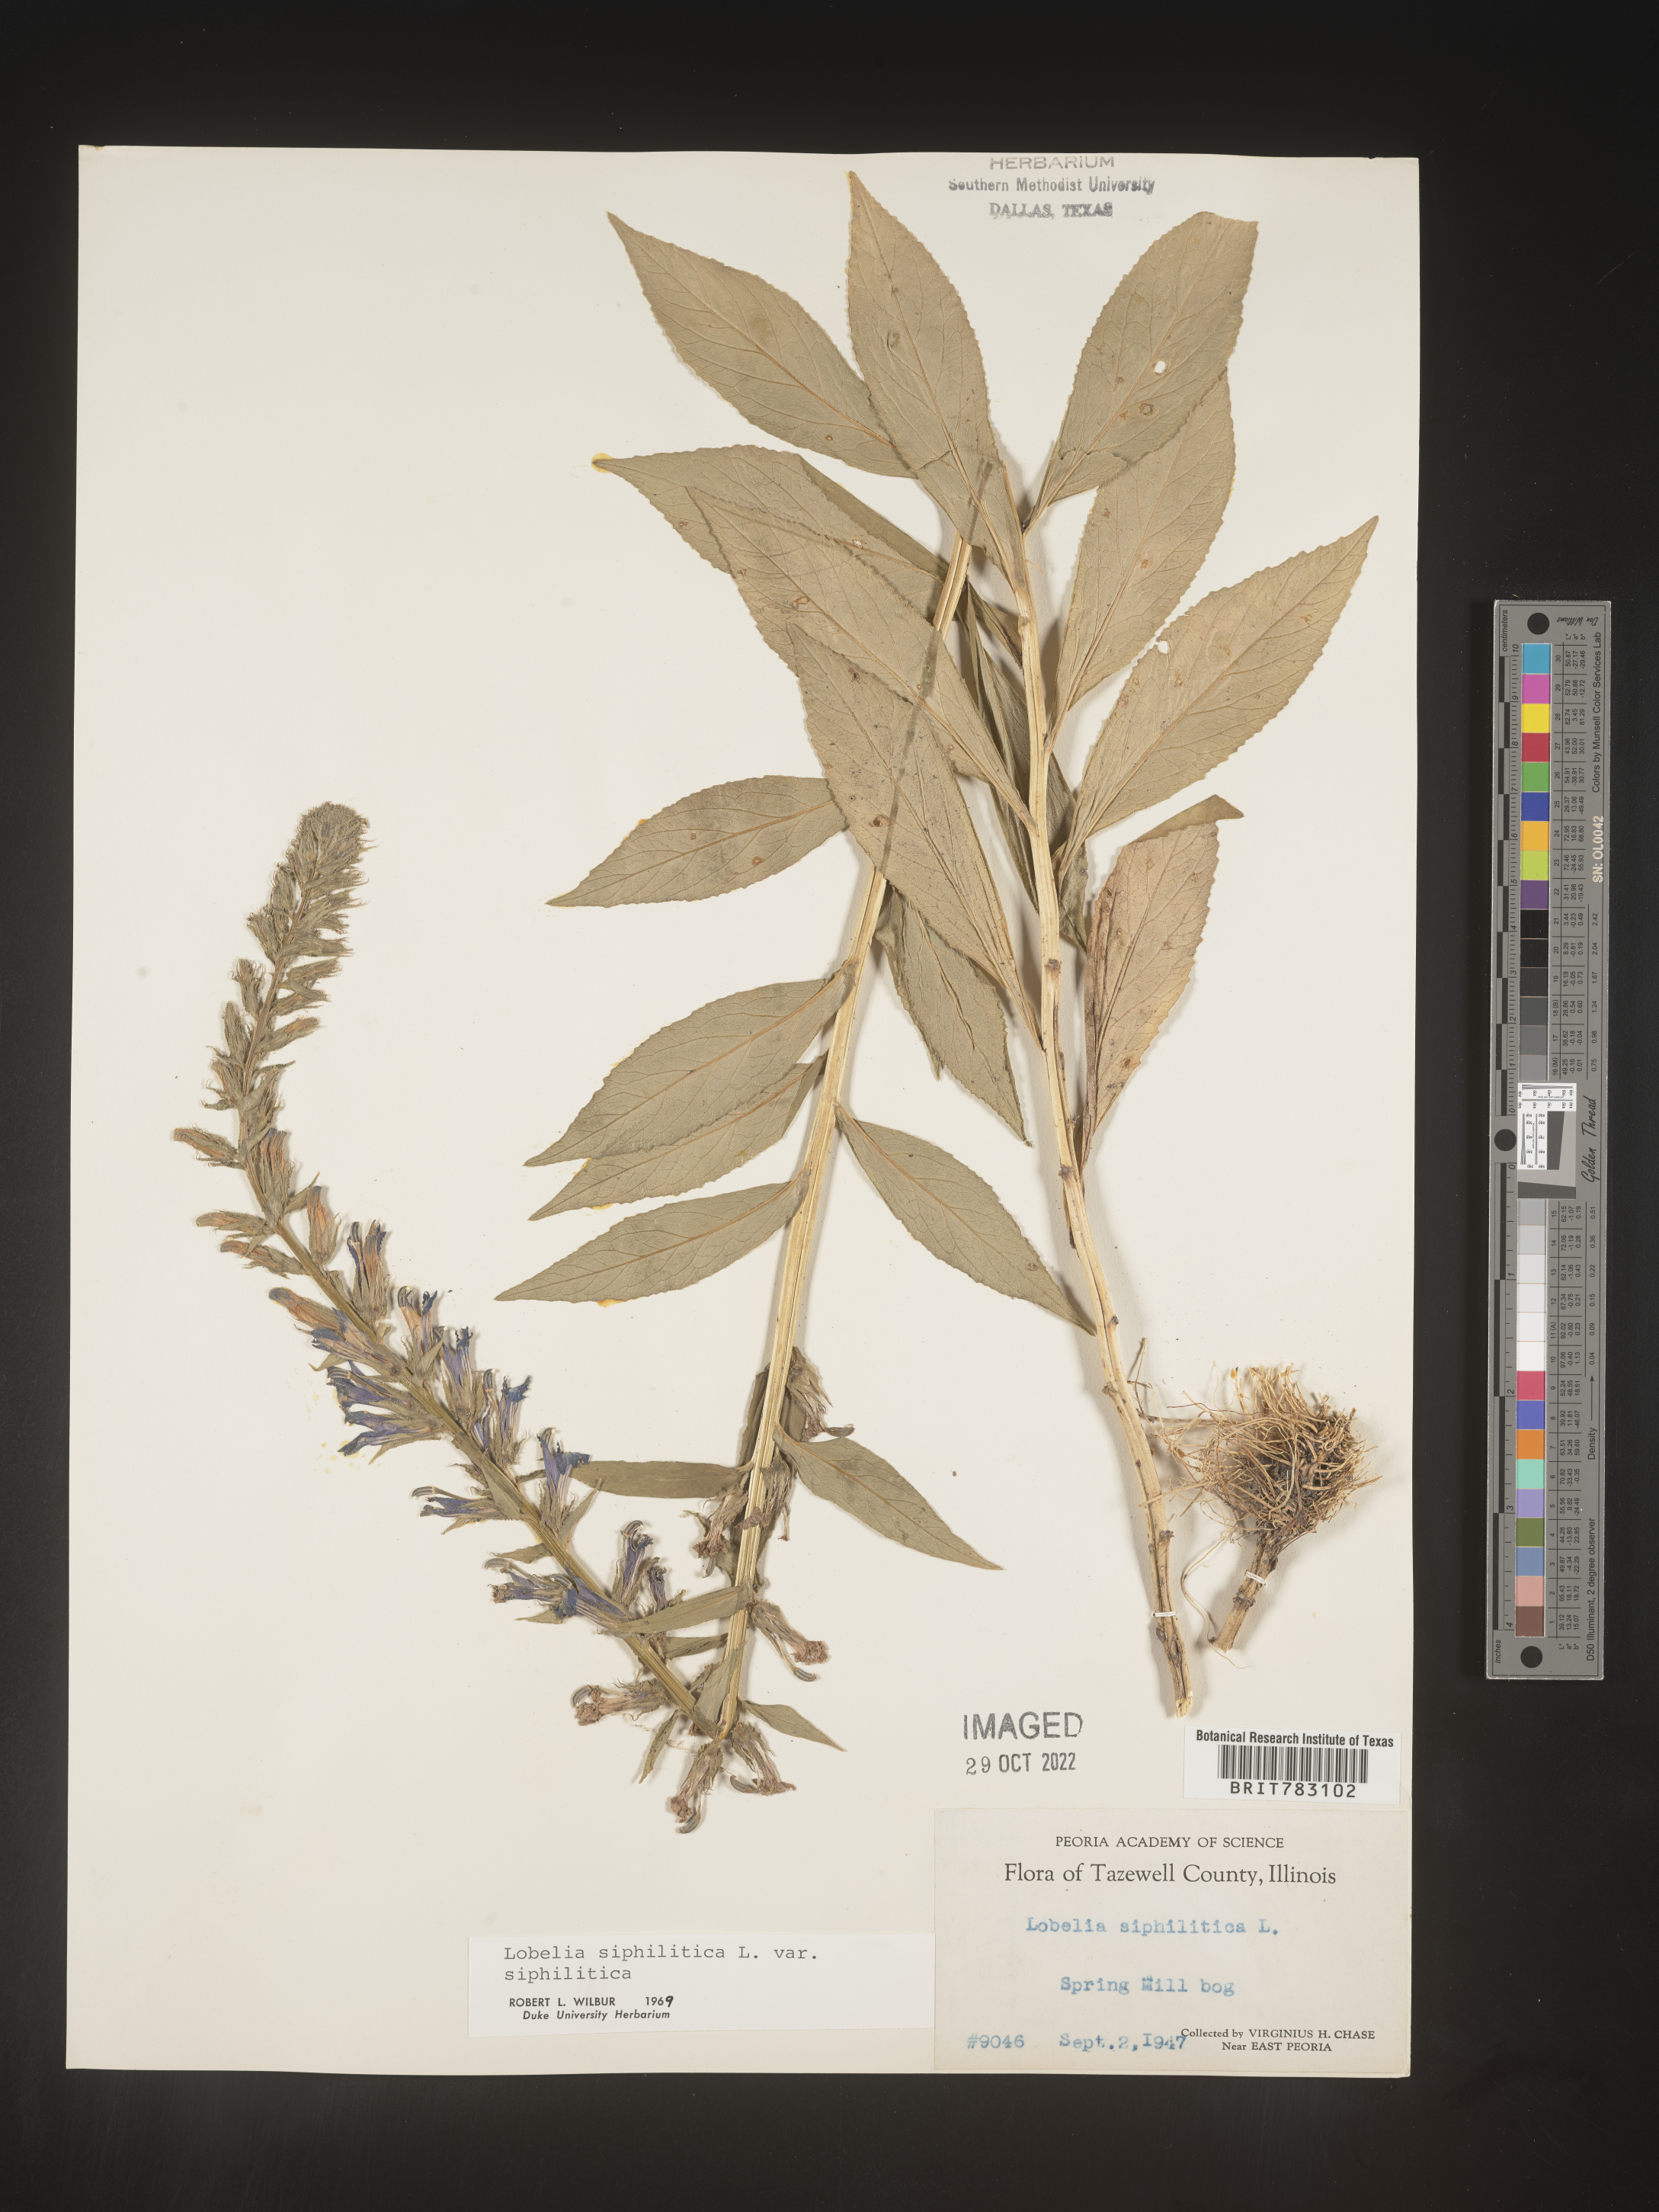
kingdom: Plantae
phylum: Tracheophyta
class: Magnoliopsida
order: Asterales
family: Campanulaceae
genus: Lobelia
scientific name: Lobelia siphilitica
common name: Great lobelia
